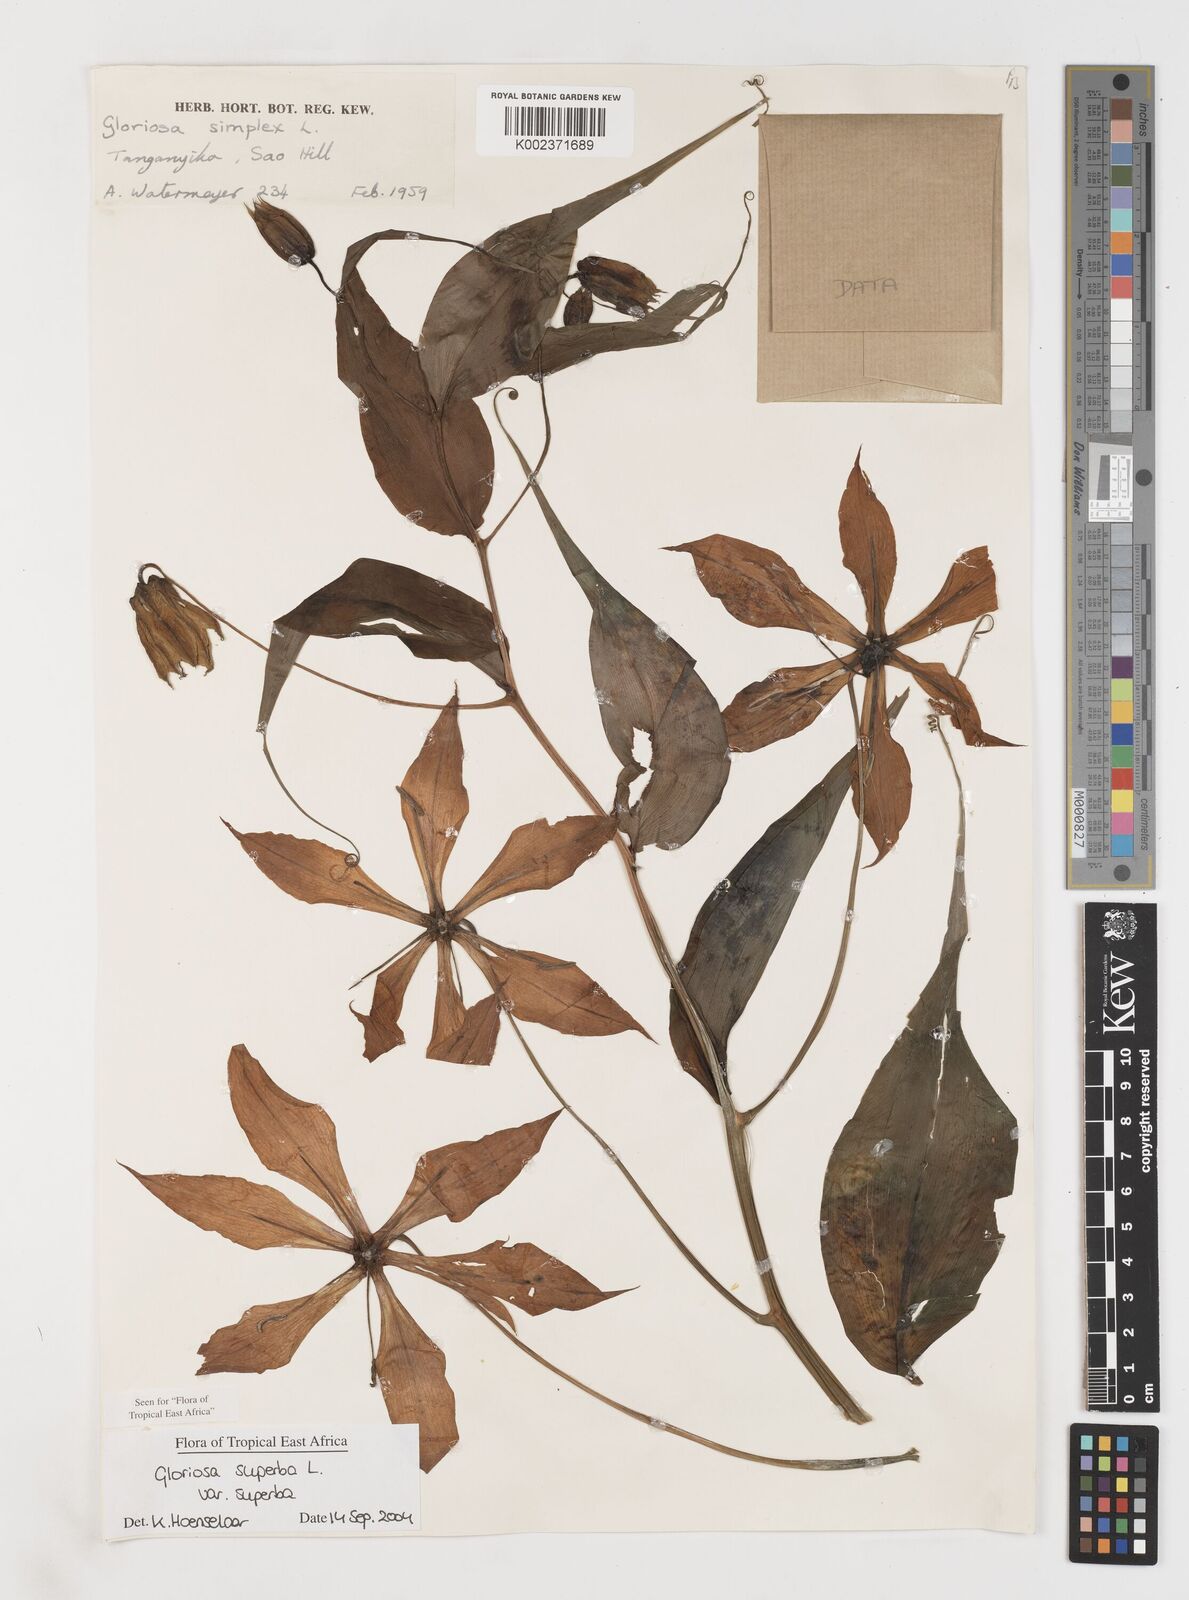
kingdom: Plantae
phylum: Tracheophyta
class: Liliopsida
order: Liliales
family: Colchicaceae
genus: Gloriosa
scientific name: Gloriosa simplex
